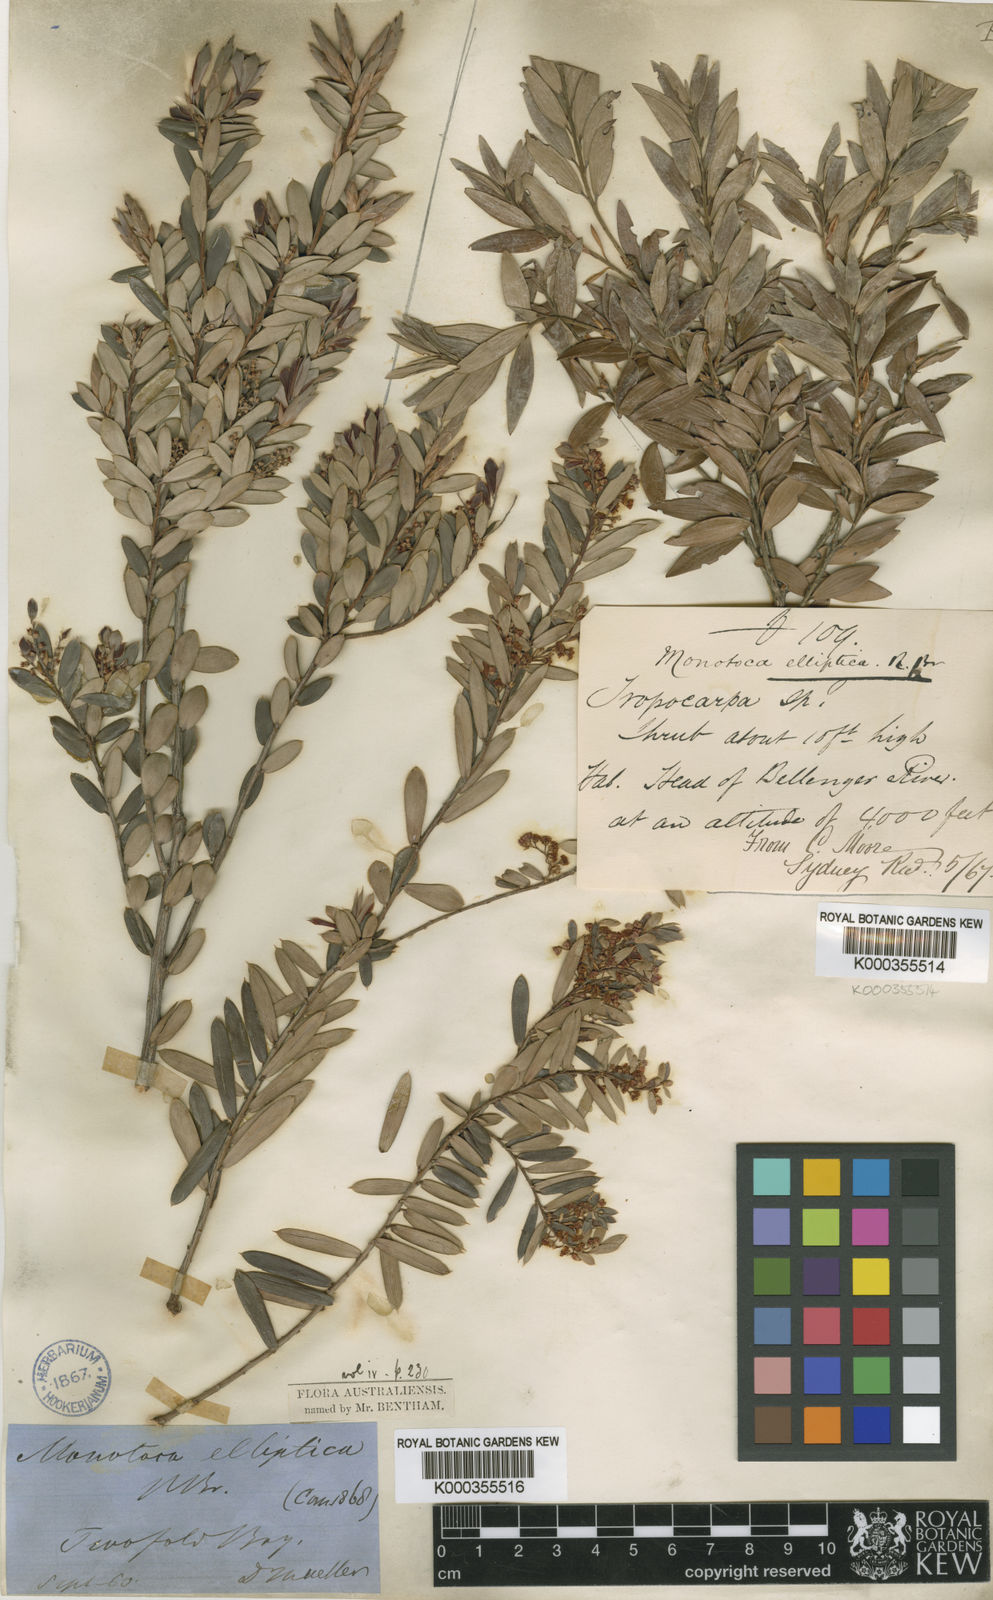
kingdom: Plantae
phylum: Tracheophyta
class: Magnoliopsida
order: Ericales
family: Ericaceae
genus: Monotoca
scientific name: Monotoca elliptica
